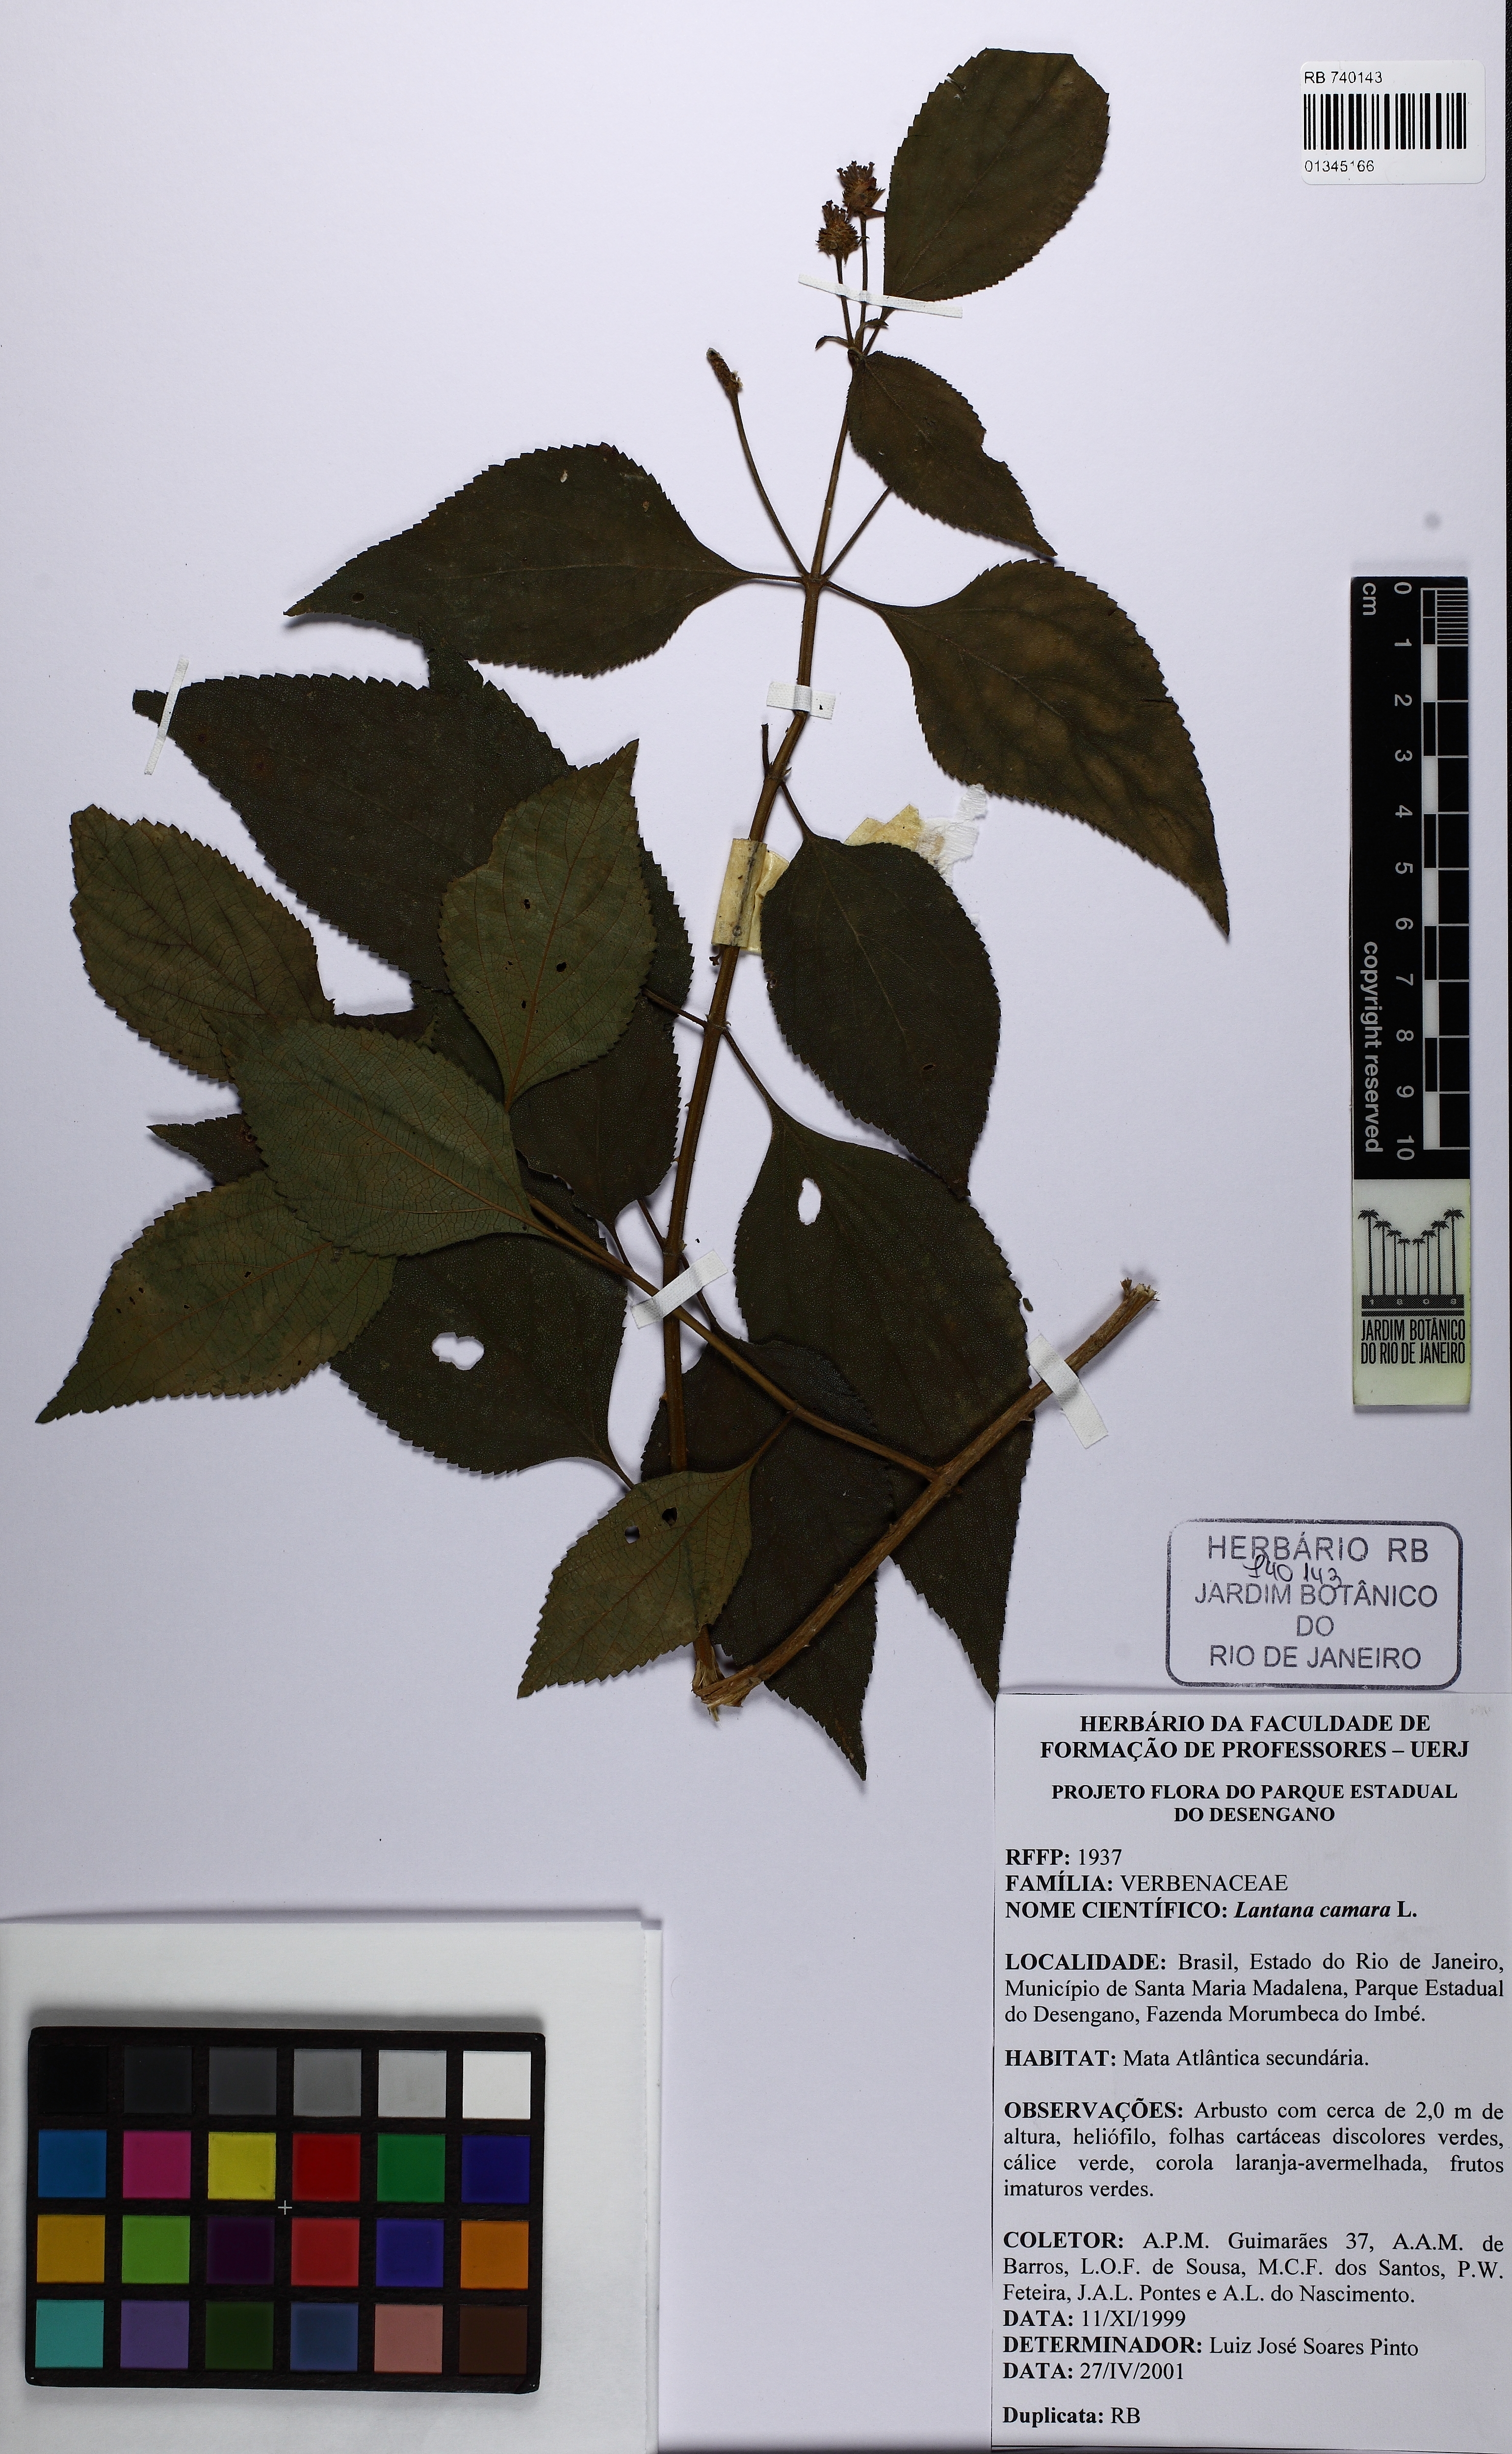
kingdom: Plantae
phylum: Tracheophyta
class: Magnoliopsida
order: Lamiales
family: Verbenaceae
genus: Lantana
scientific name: Lantana camara
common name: Lantana
